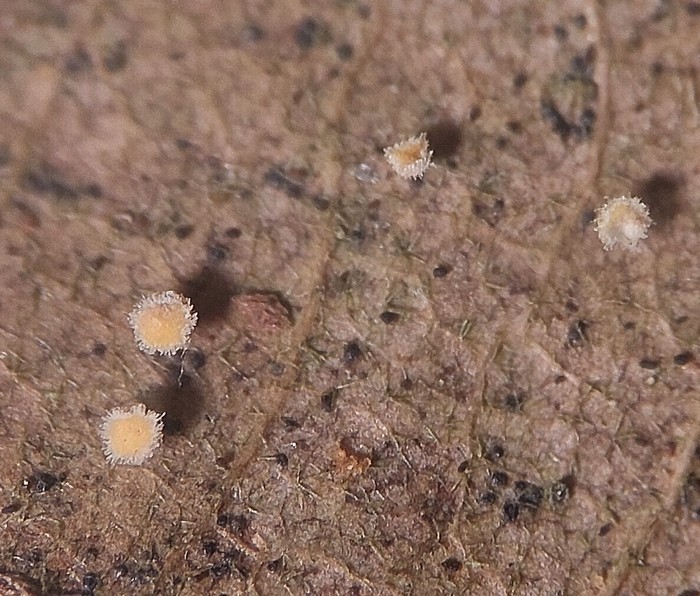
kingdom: Fungi
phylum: Ascomycota
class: Leotiomycetes
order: Helotiales
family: Lachnaceae
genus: Incrucipulum
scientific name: Incrucipulum ciliare
